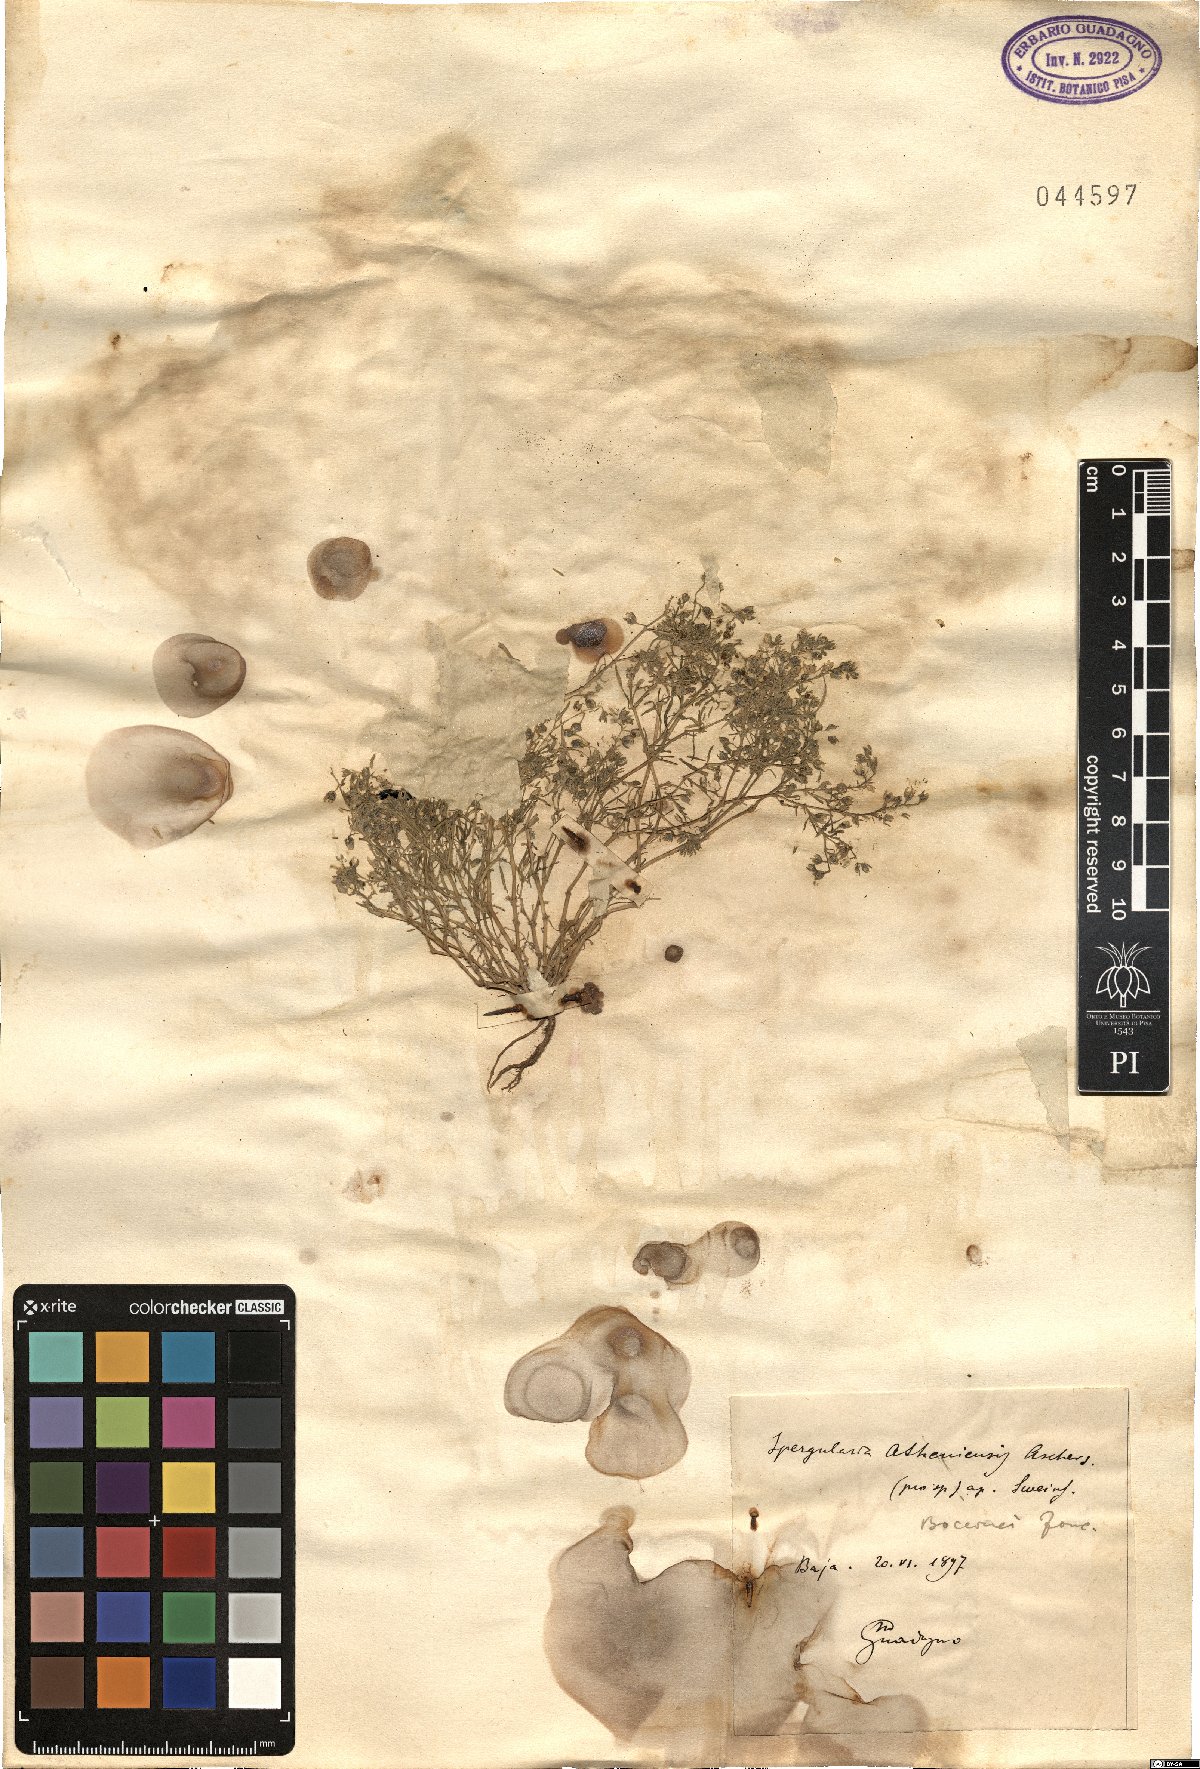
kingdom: Plantae
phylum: Tracheophyta
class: Magnoliopsida
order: Caryophyllales
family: Caryophyllaceae
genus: Spergularia
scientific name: Spergularia bocconei
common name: Greek sea-spurrey
